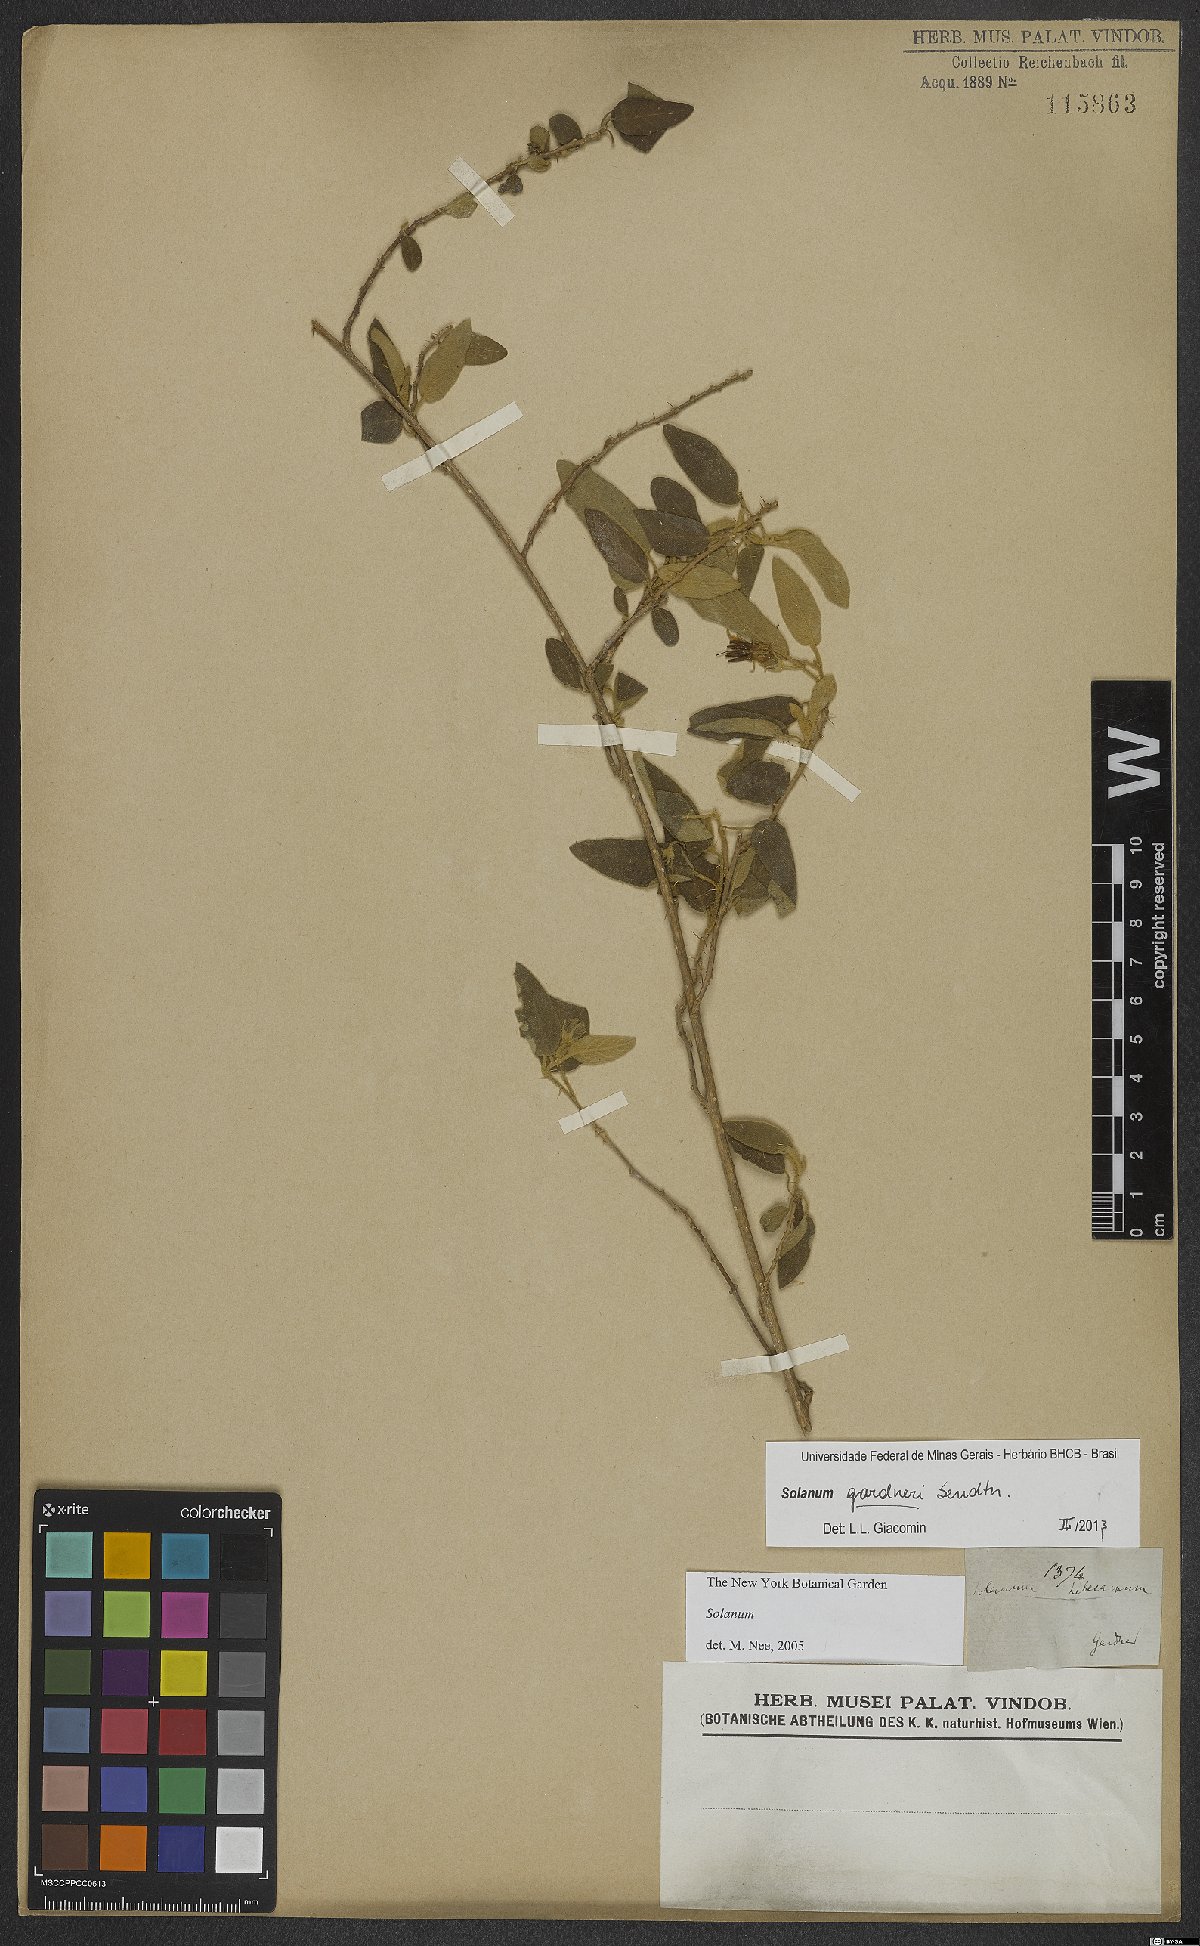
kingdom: Plantae
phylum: Tracheophyta
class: Magnoliopsida
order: Solanales
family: Solanaceae
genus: Solanum
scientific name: Solanum gardneri
